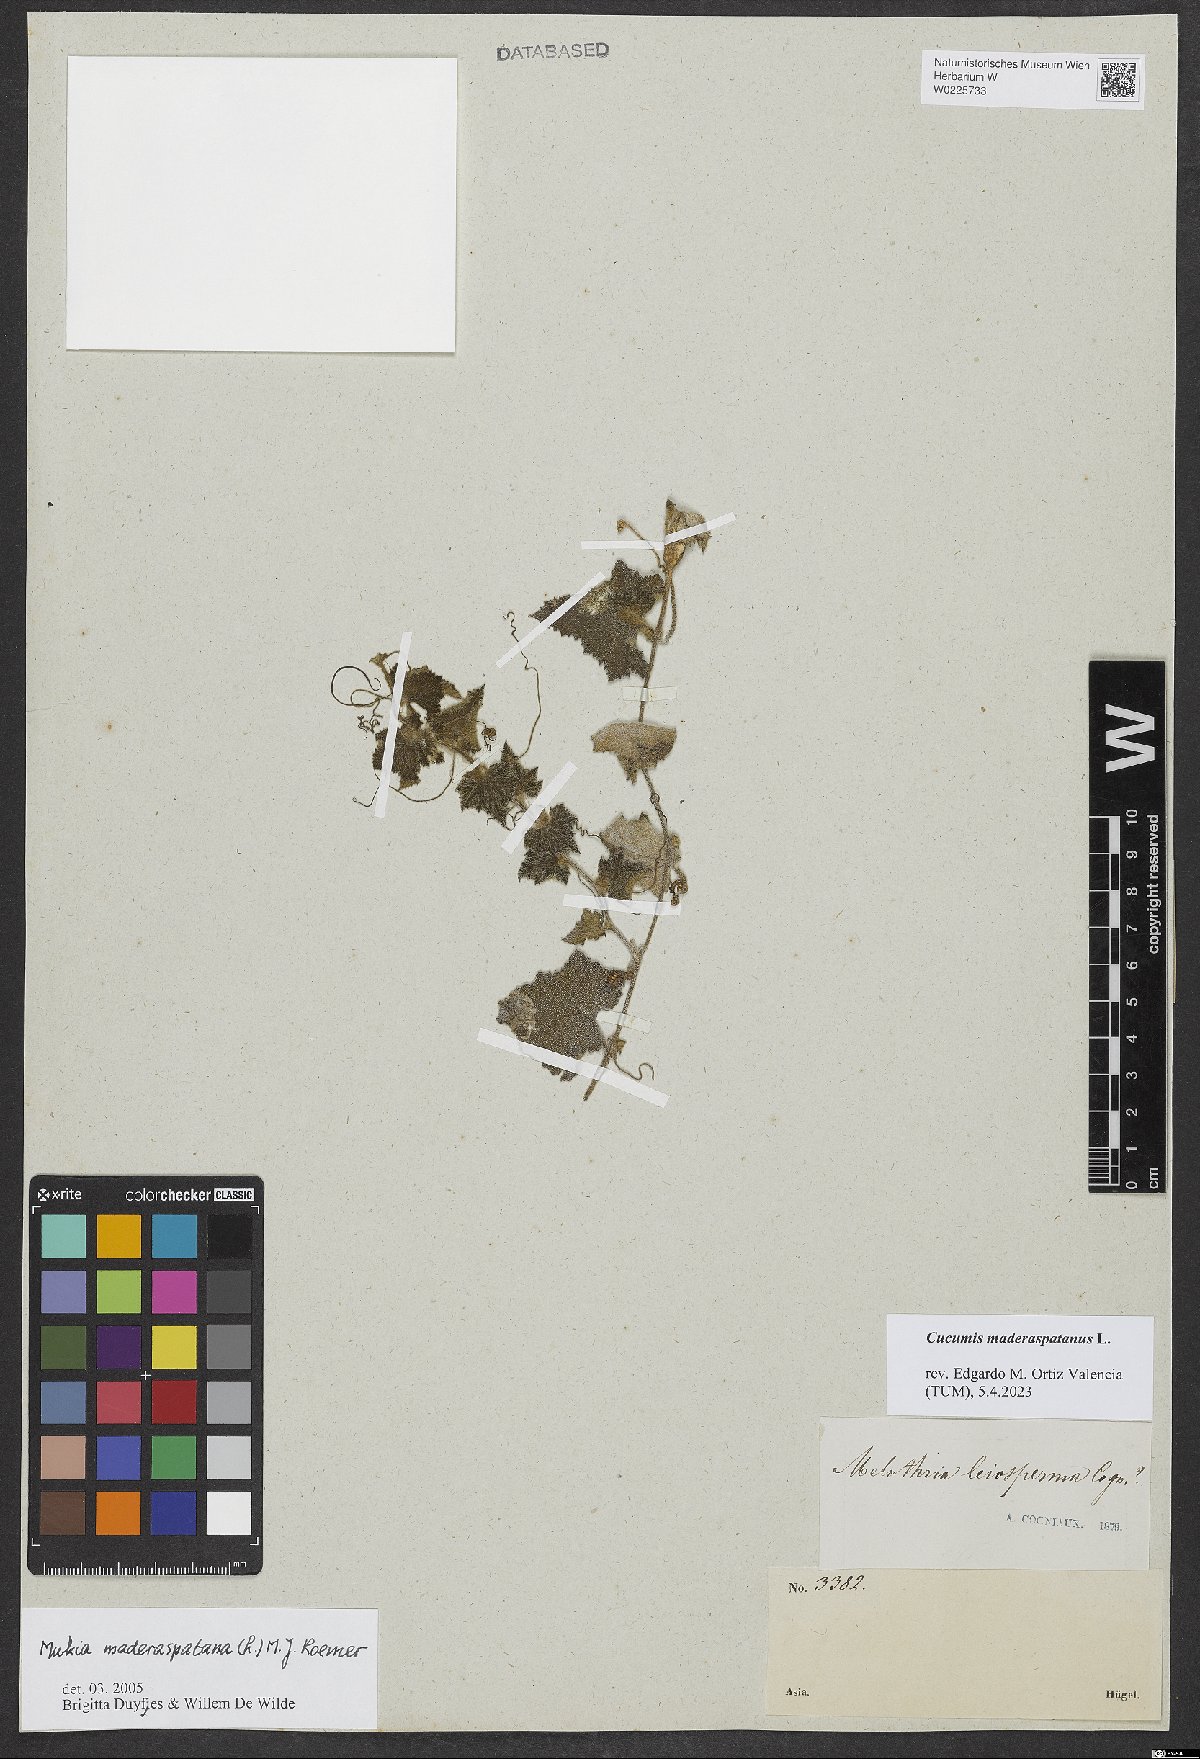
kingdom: Plantae
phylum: Tracheophyta
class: Magnoliopsida
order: Cucurbitales
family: Cucurbitaceae
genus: Cucumis
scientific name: Cucumis maderaspatanus
